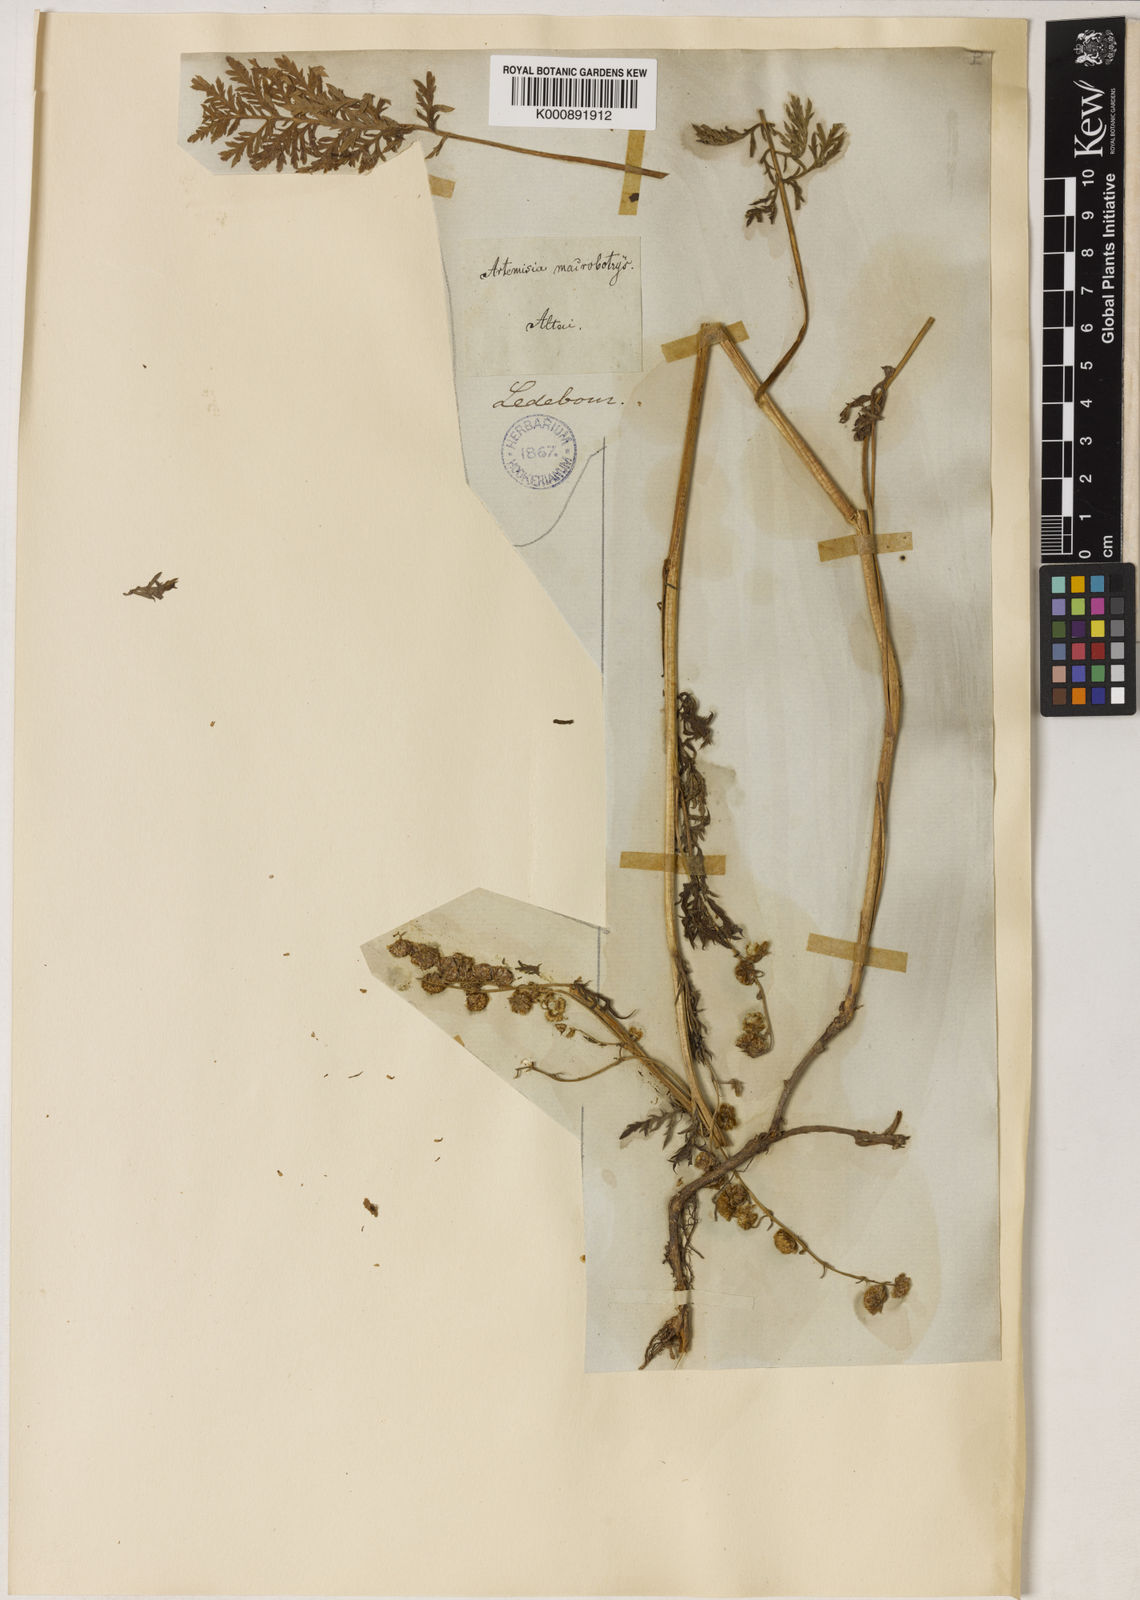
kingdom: Plantae
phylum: Tracheophyta
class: Magnoliopsida
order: Asterales
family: Asteraceae
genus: Artemisia
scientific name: Artemisia tanacetifolia
